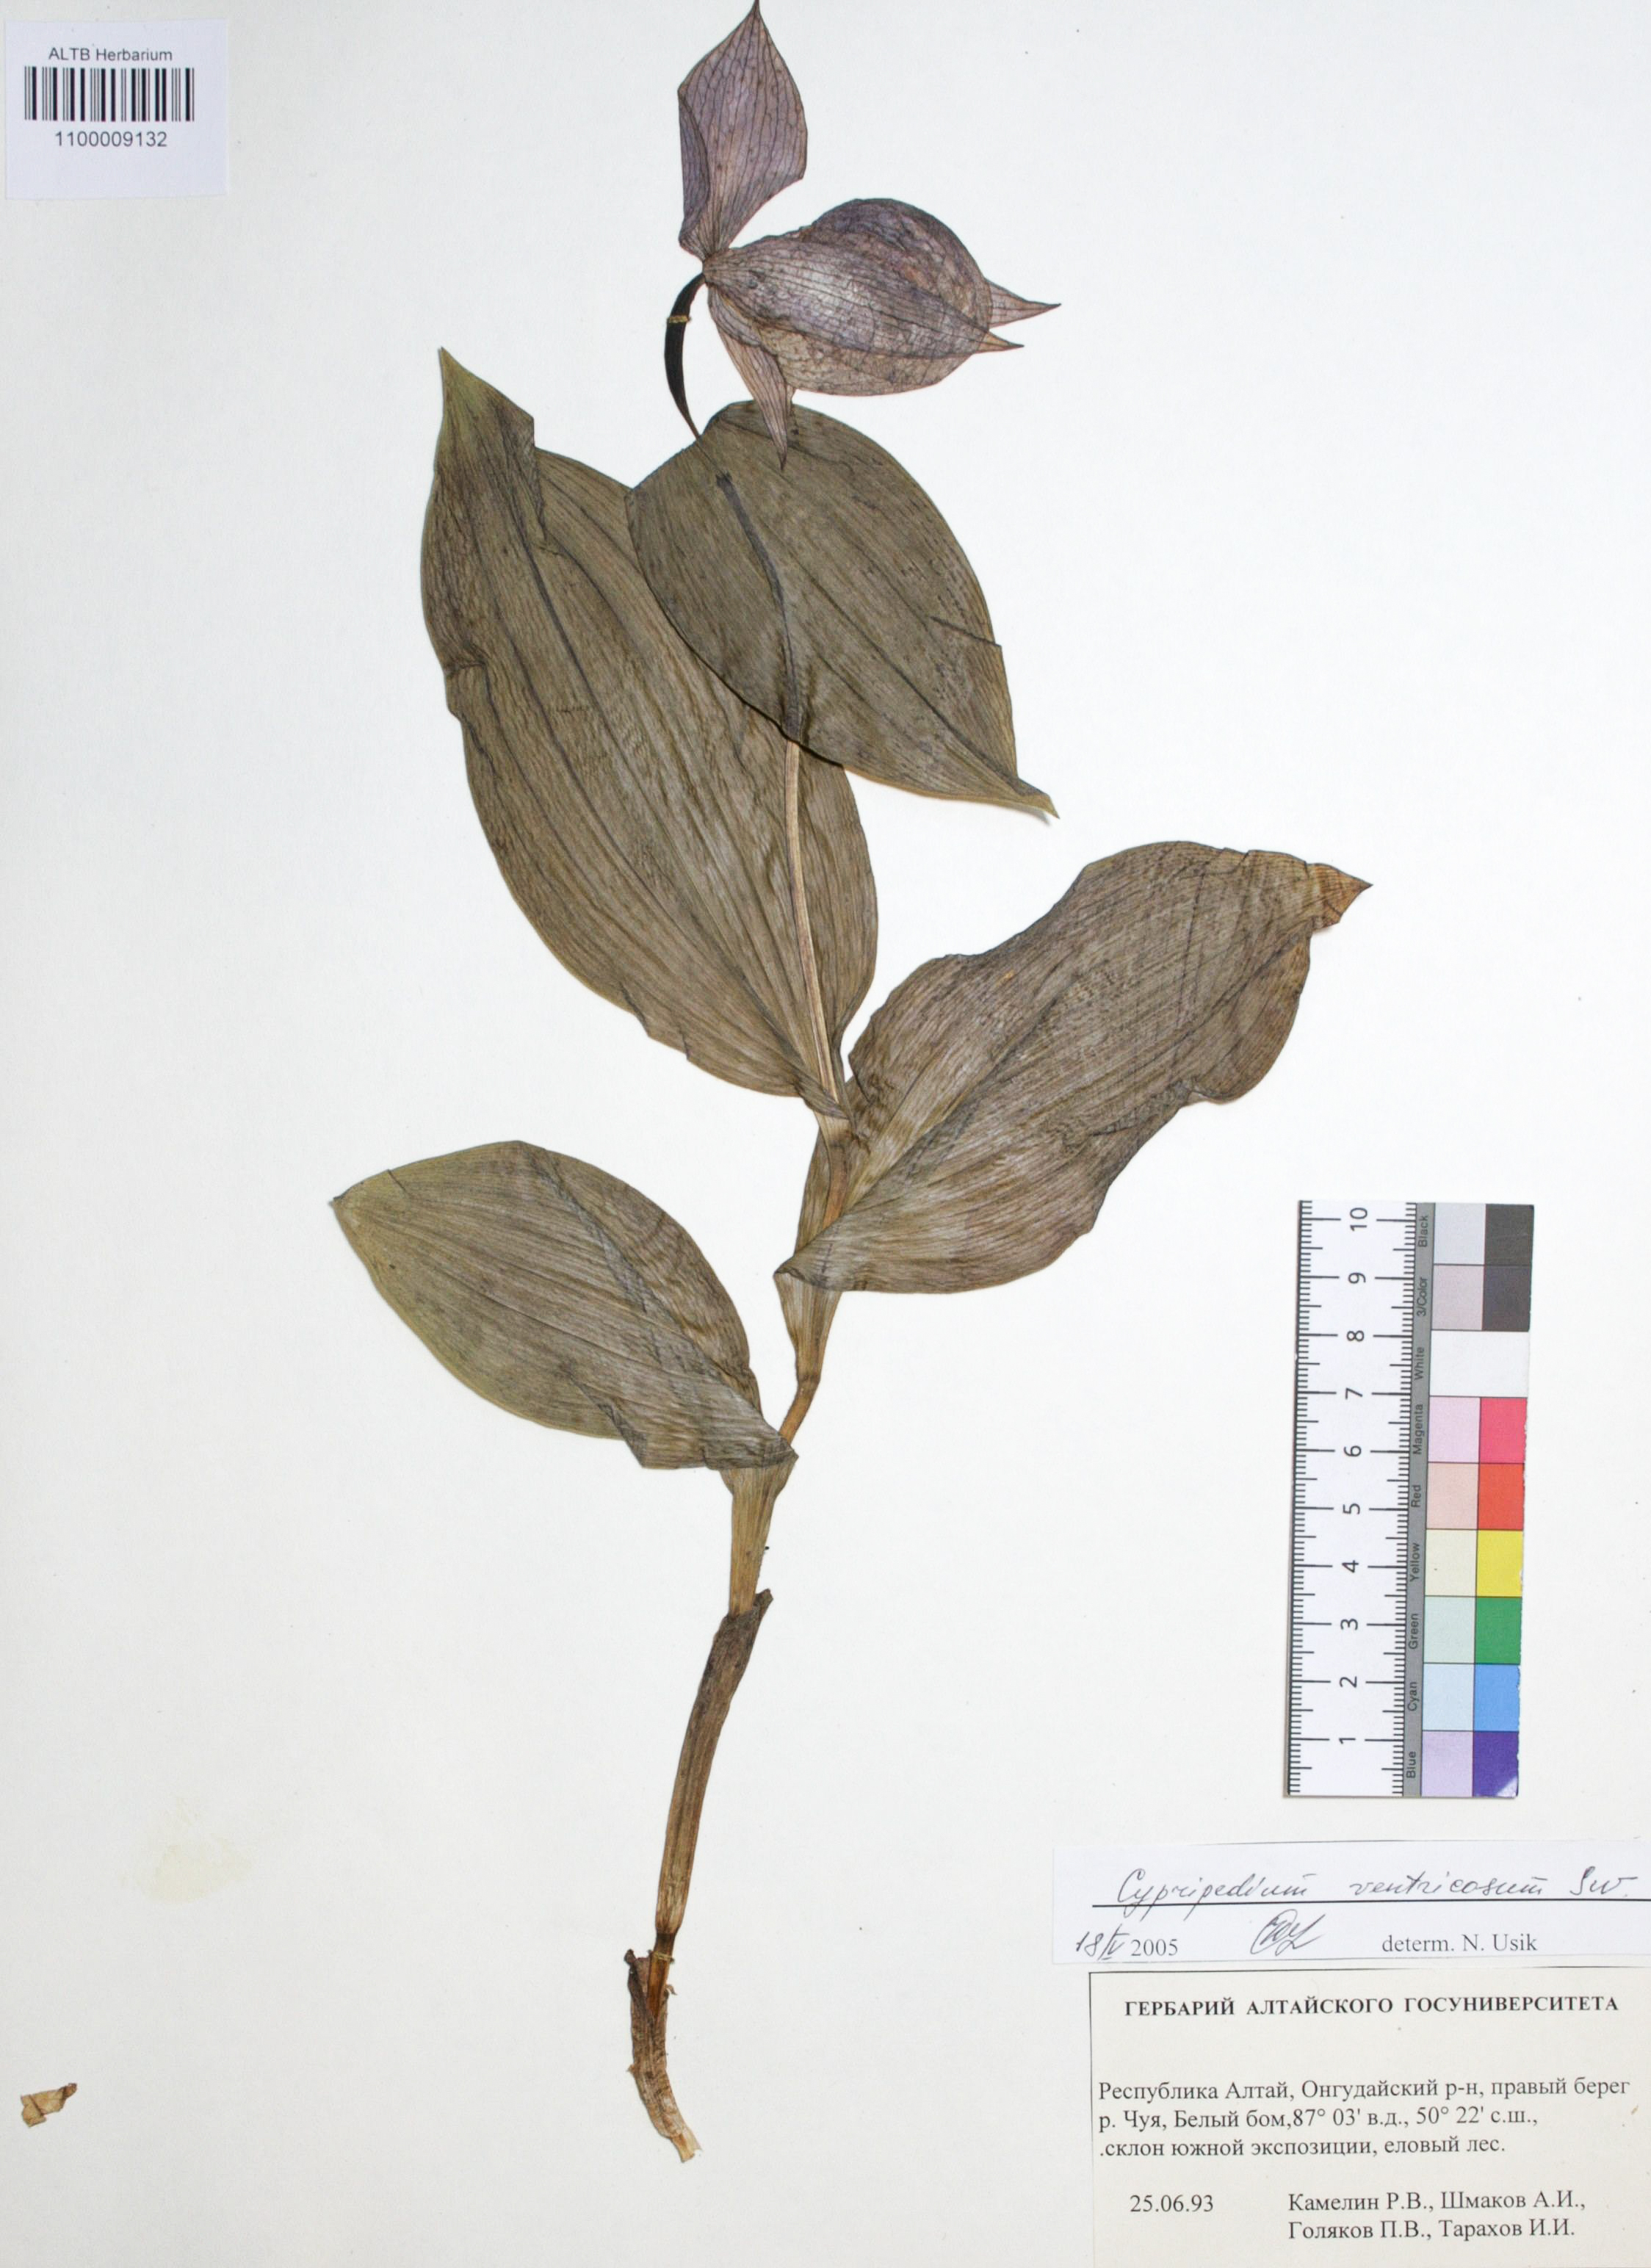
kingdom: Plantae
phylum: Tracheophyta
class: Liliopsida
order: Asparagales
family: Orchidaceae
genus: Cypripedium
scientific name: Cypripedium ventricosum
